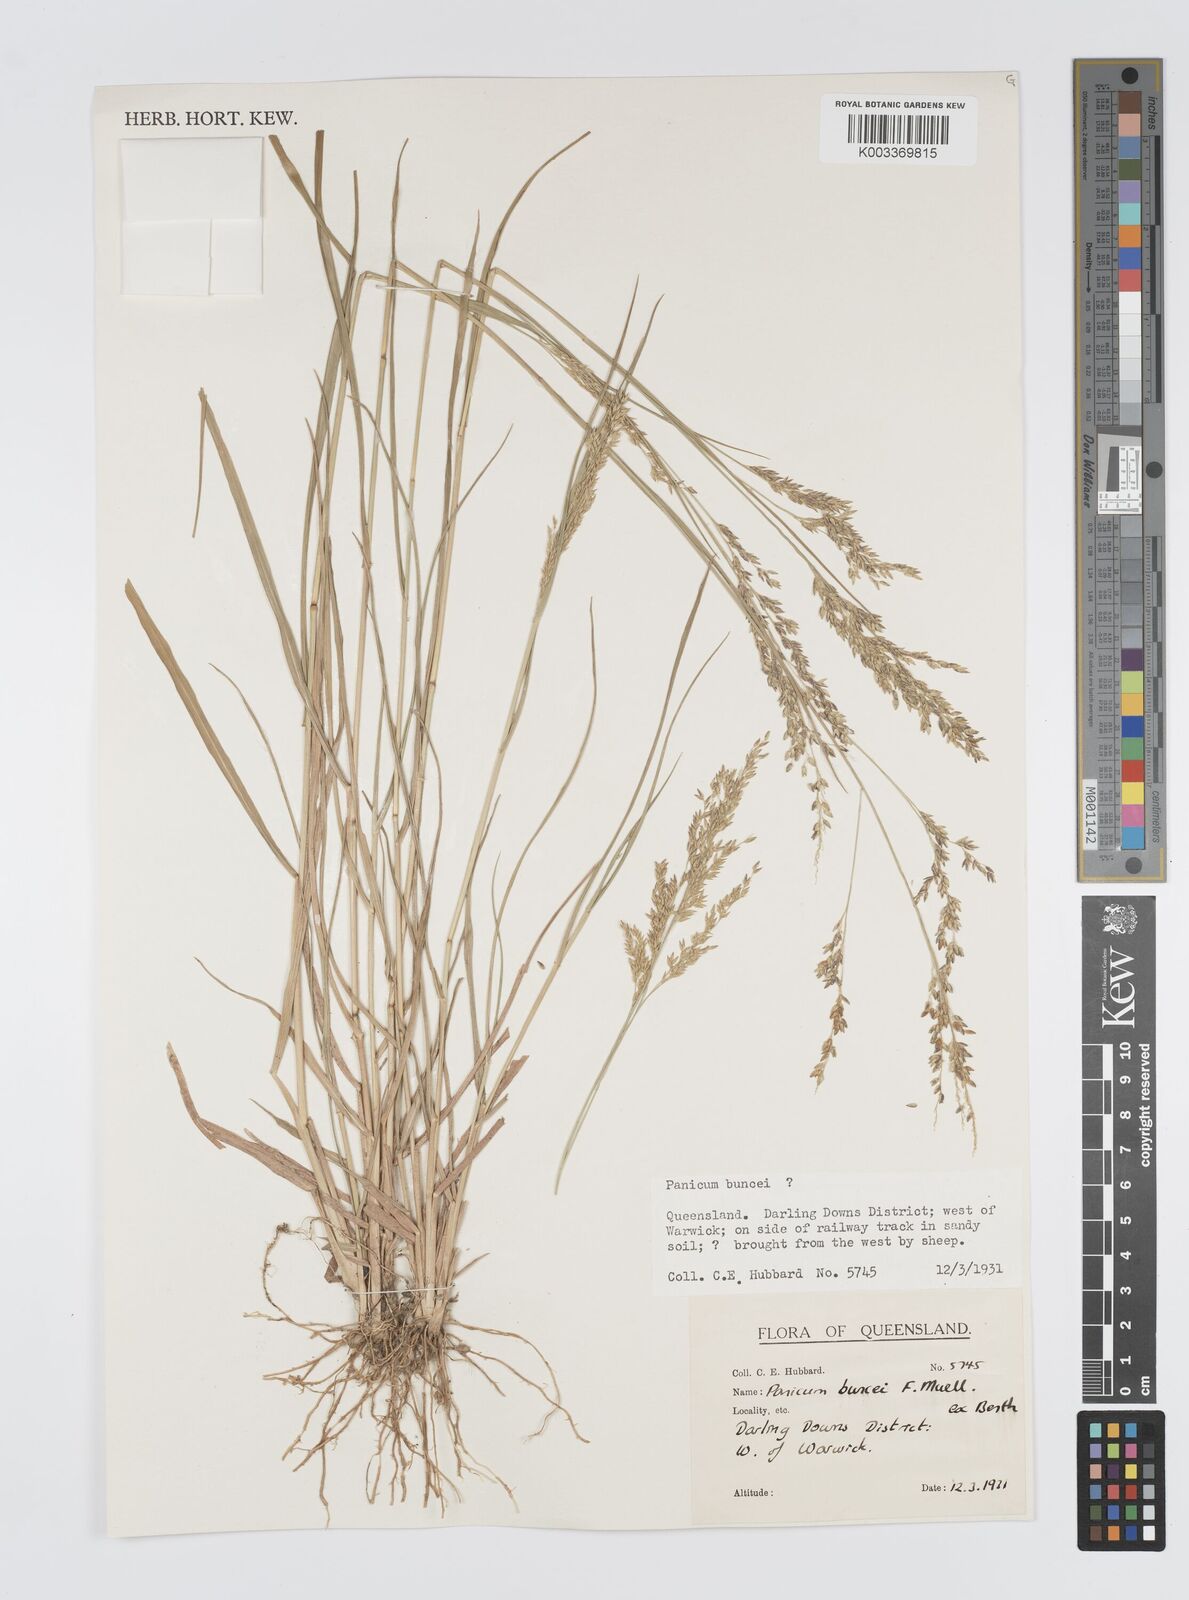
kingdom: Plantae
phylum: Tracheophyta
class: Liliopsida
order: Poales
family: Poaceae
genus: Panicum
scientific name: Panicum buncei
